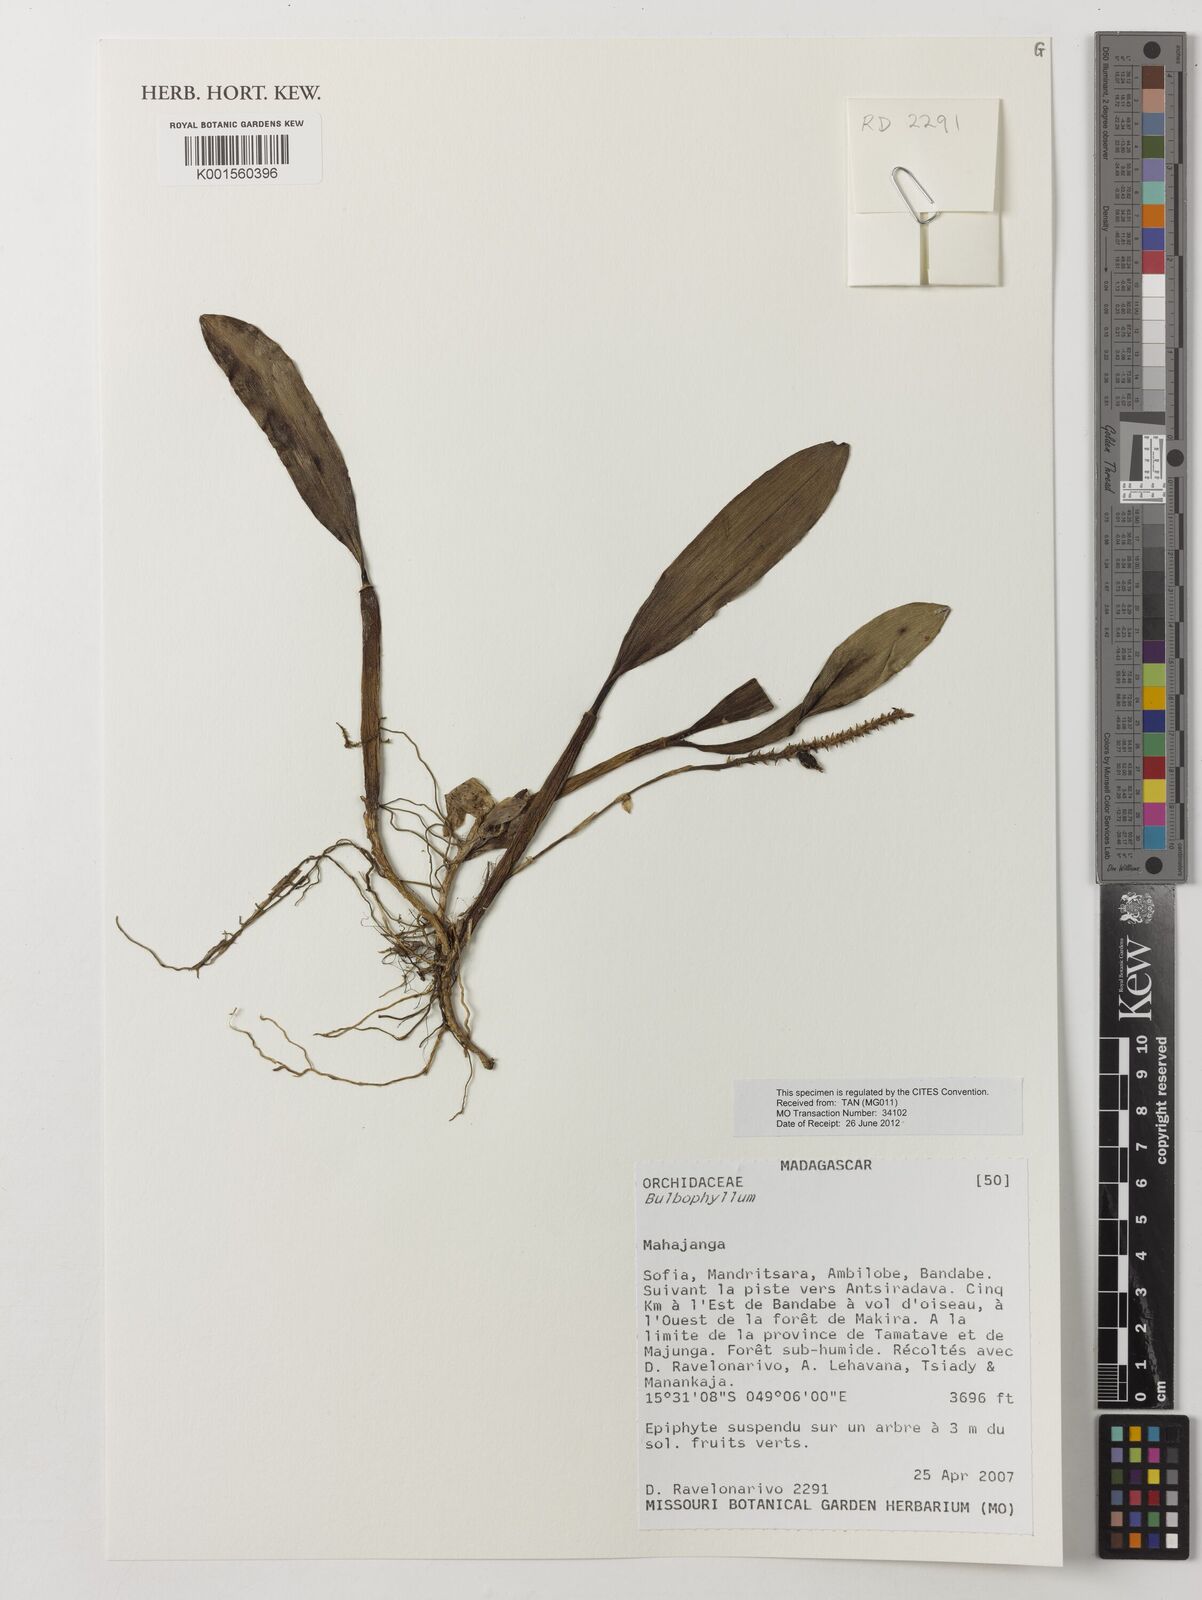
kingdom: Plantae
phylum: Tracheophyta
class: Liliopsida
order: Asparagales
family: Orchidaceae
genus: Bulbophyllum
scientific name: Bulbophyllum
